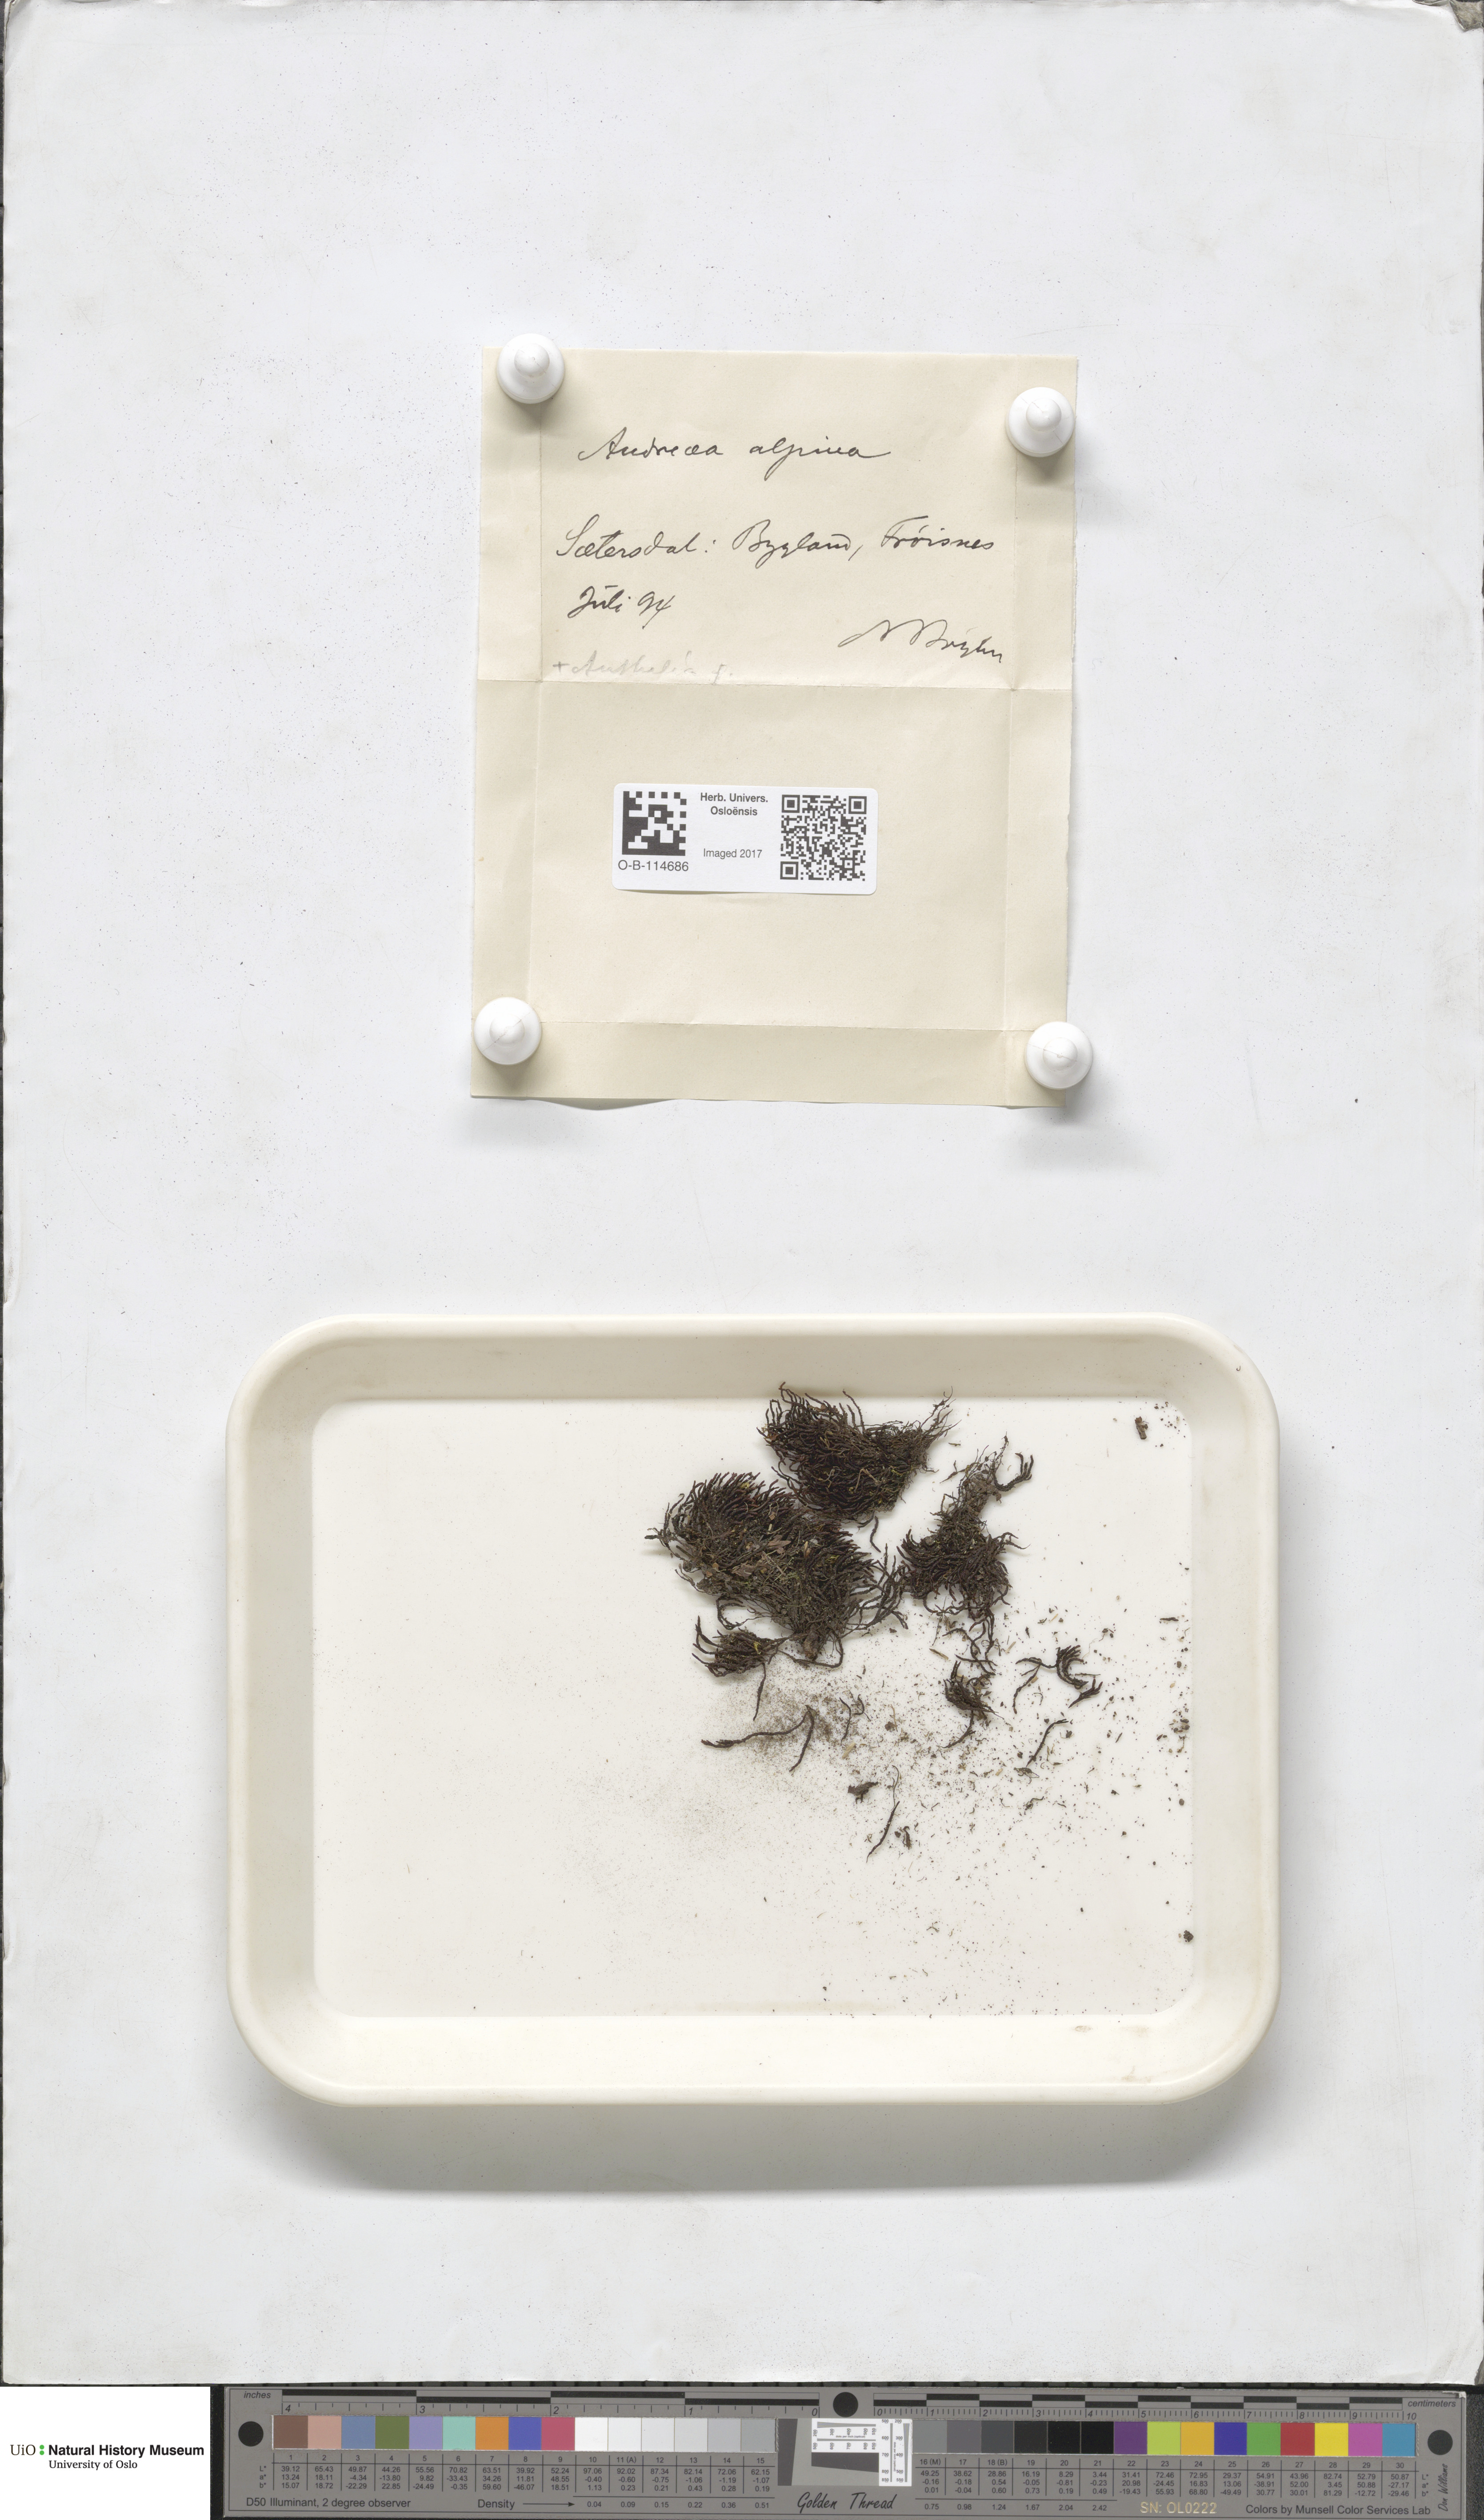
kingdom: Plantae
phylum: Bryophyta
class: Andreaeopsida
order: Andreaeales
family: Andreaeaceae
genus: Andreaea
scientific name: Andreaea hookeri
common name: Alpine rock-moss
